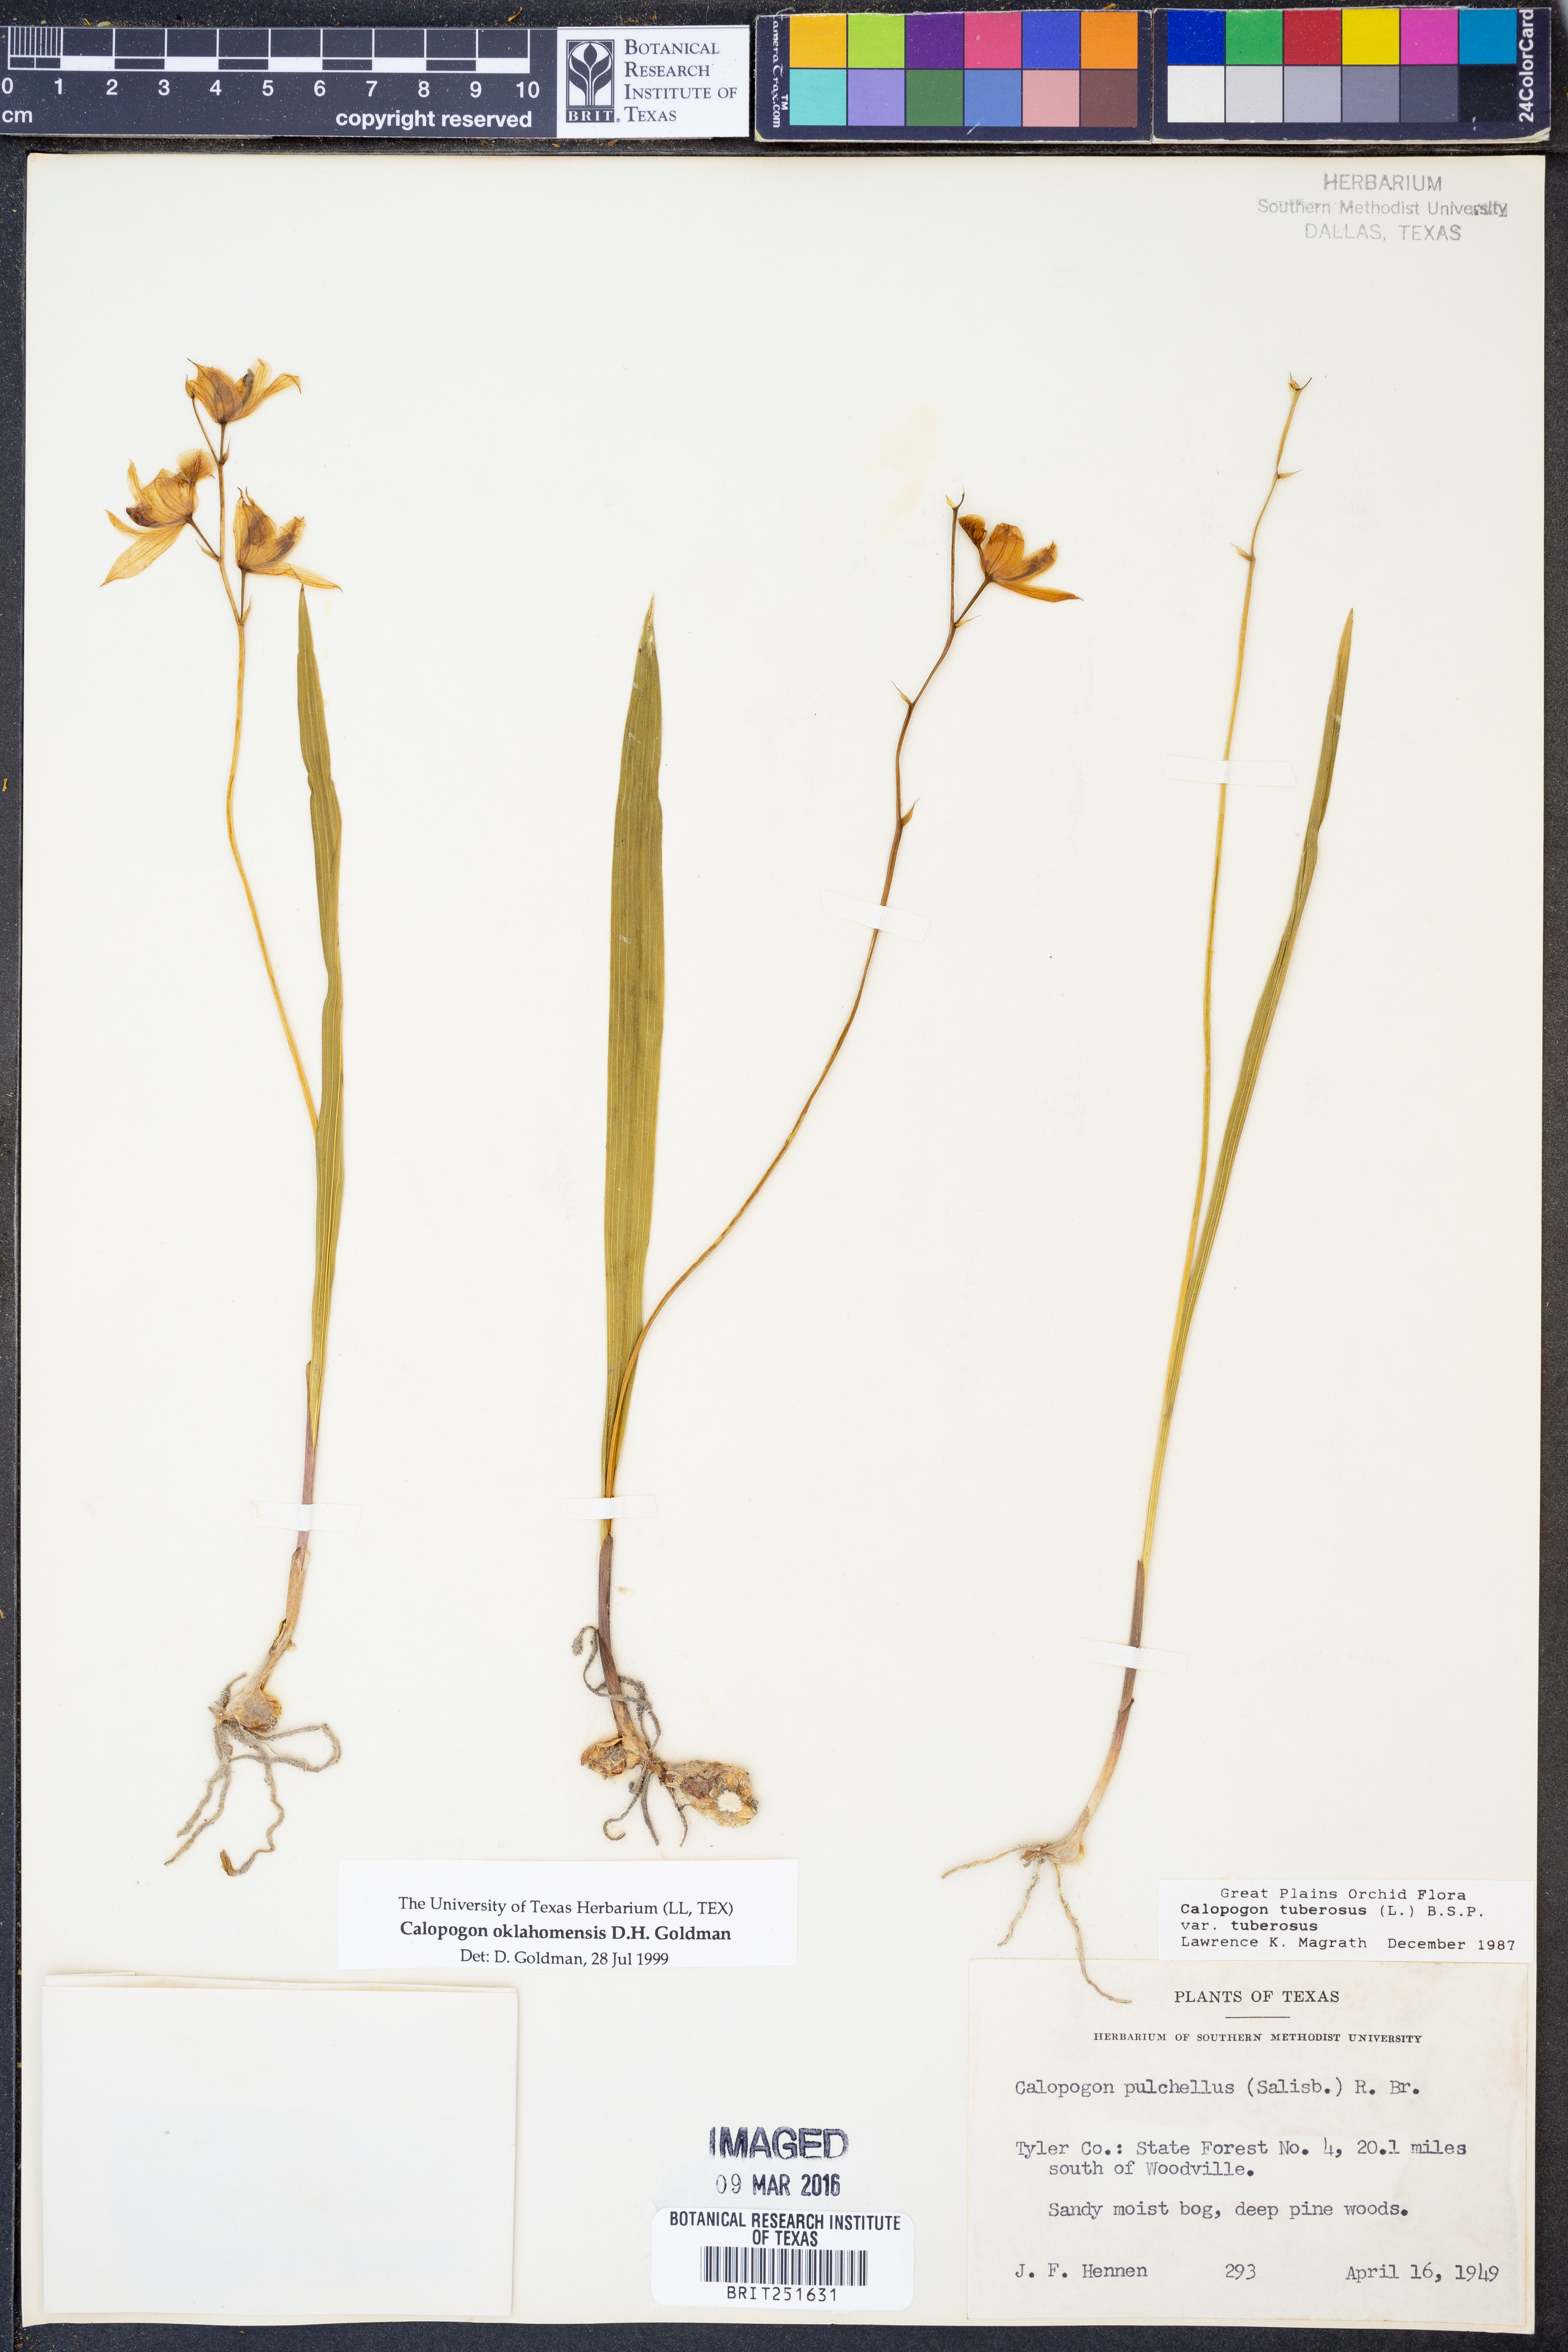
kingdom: Plantae
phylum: Tracheophyta
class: Liliopsida
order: Asparagales
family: Orchidaceae
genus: Calopogon
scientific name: Calopogon oklahomensis
